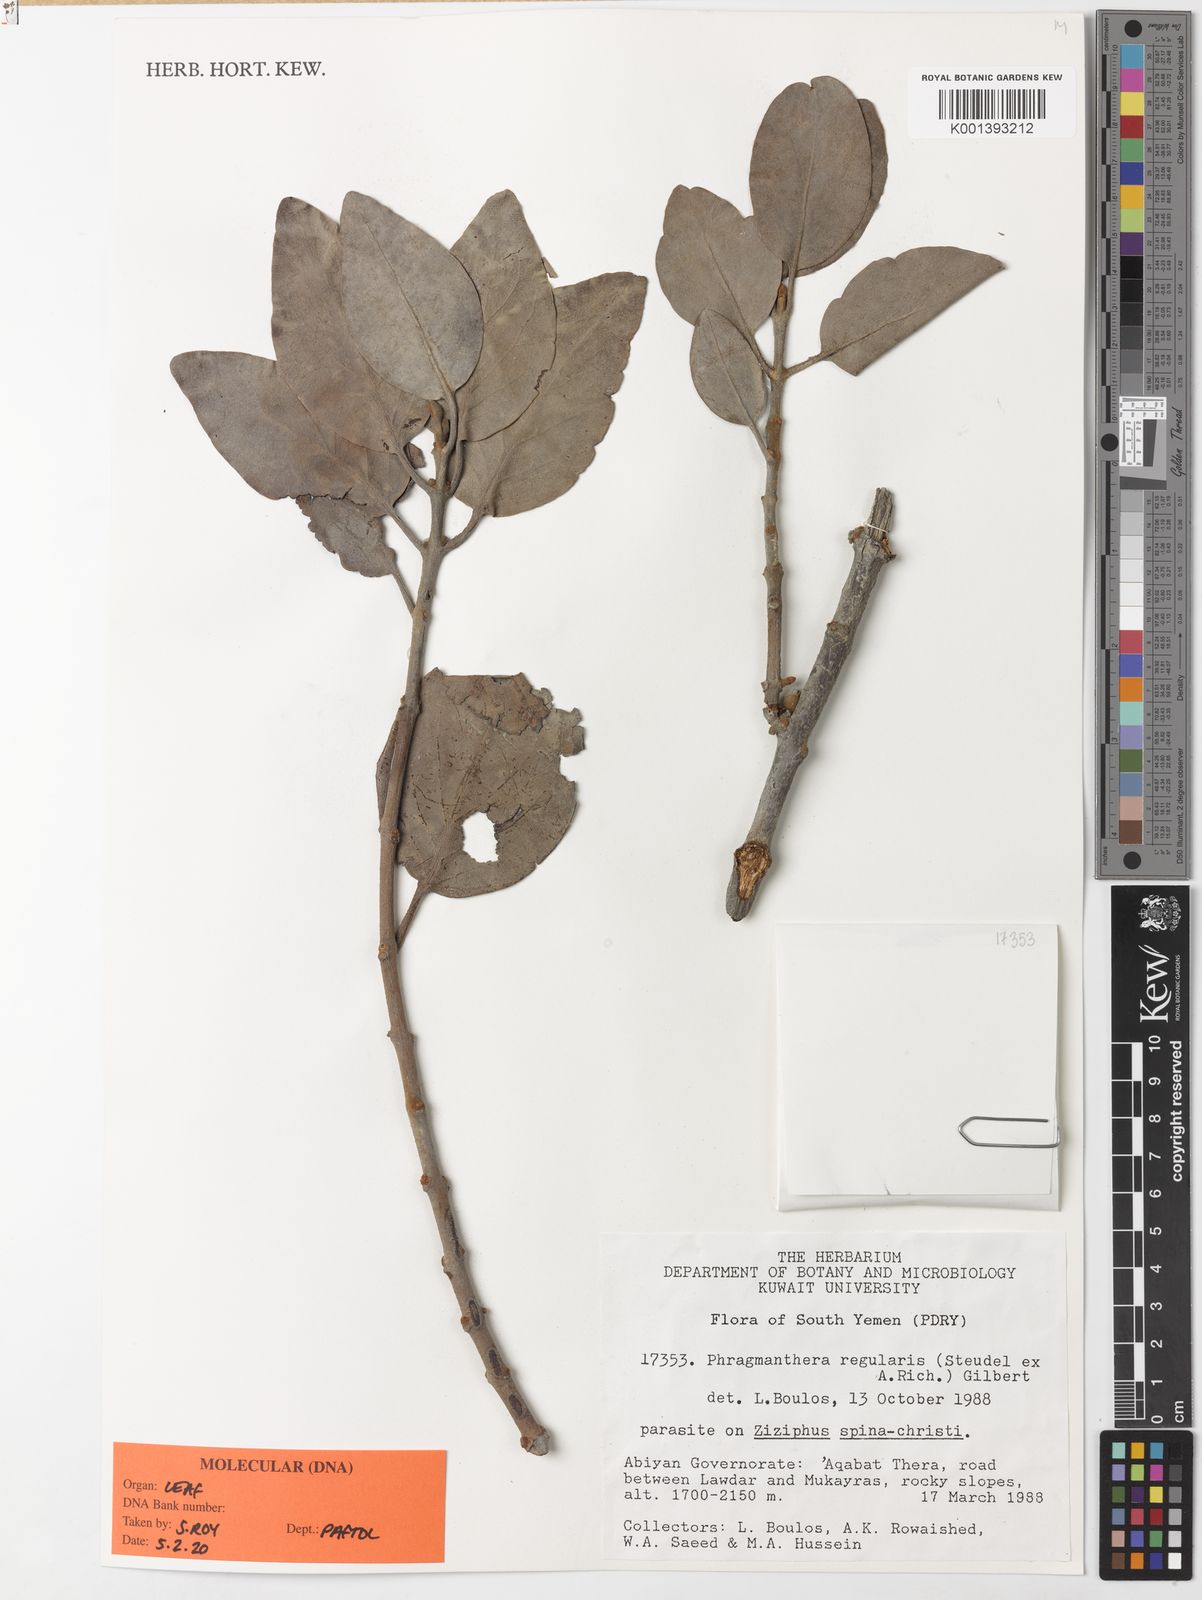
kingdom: Plantae
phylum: Tracheophyta
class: Magnoliopsida
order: Santalales
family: Loranthaceae
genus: Phragmanthera
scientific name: Phragmanthera regularis
